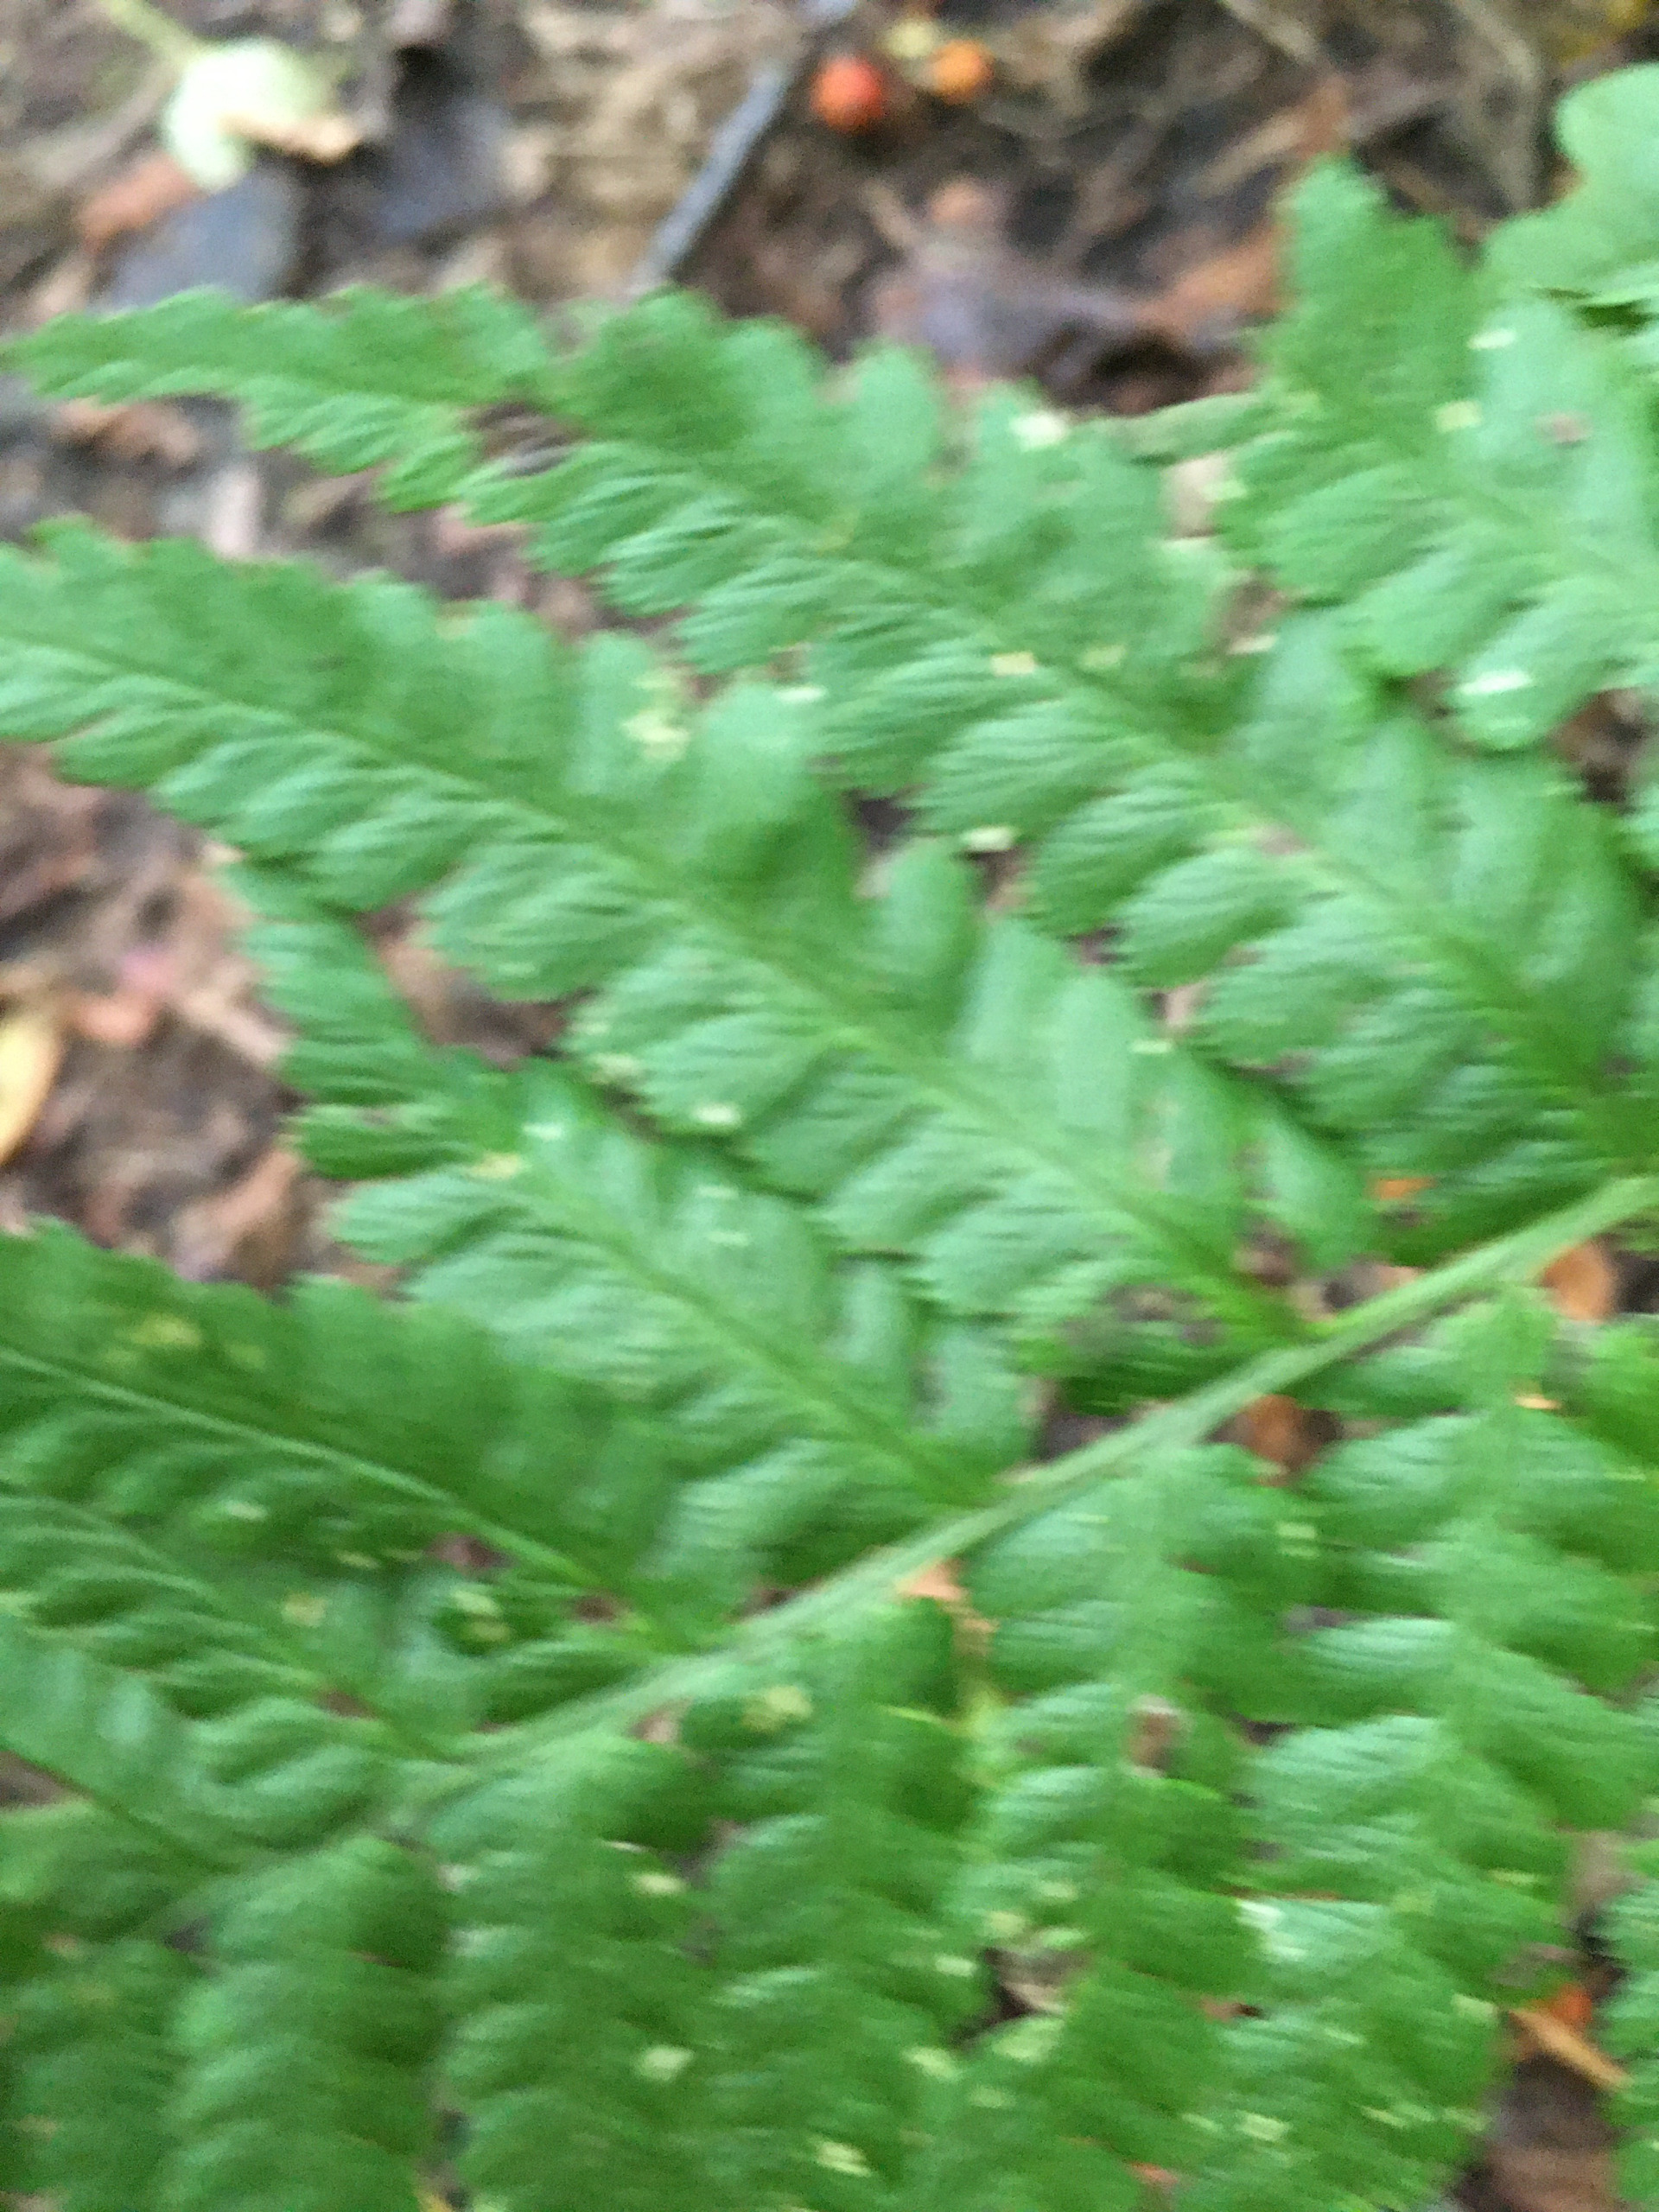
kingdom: Plantae
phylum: Tracheophyta
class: Polypodiopsida
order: Polypodiales
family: Dryopteridaceae
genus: Dryopteris
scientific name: Dryopteris filix-mas
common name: Almindelig mangeløv
